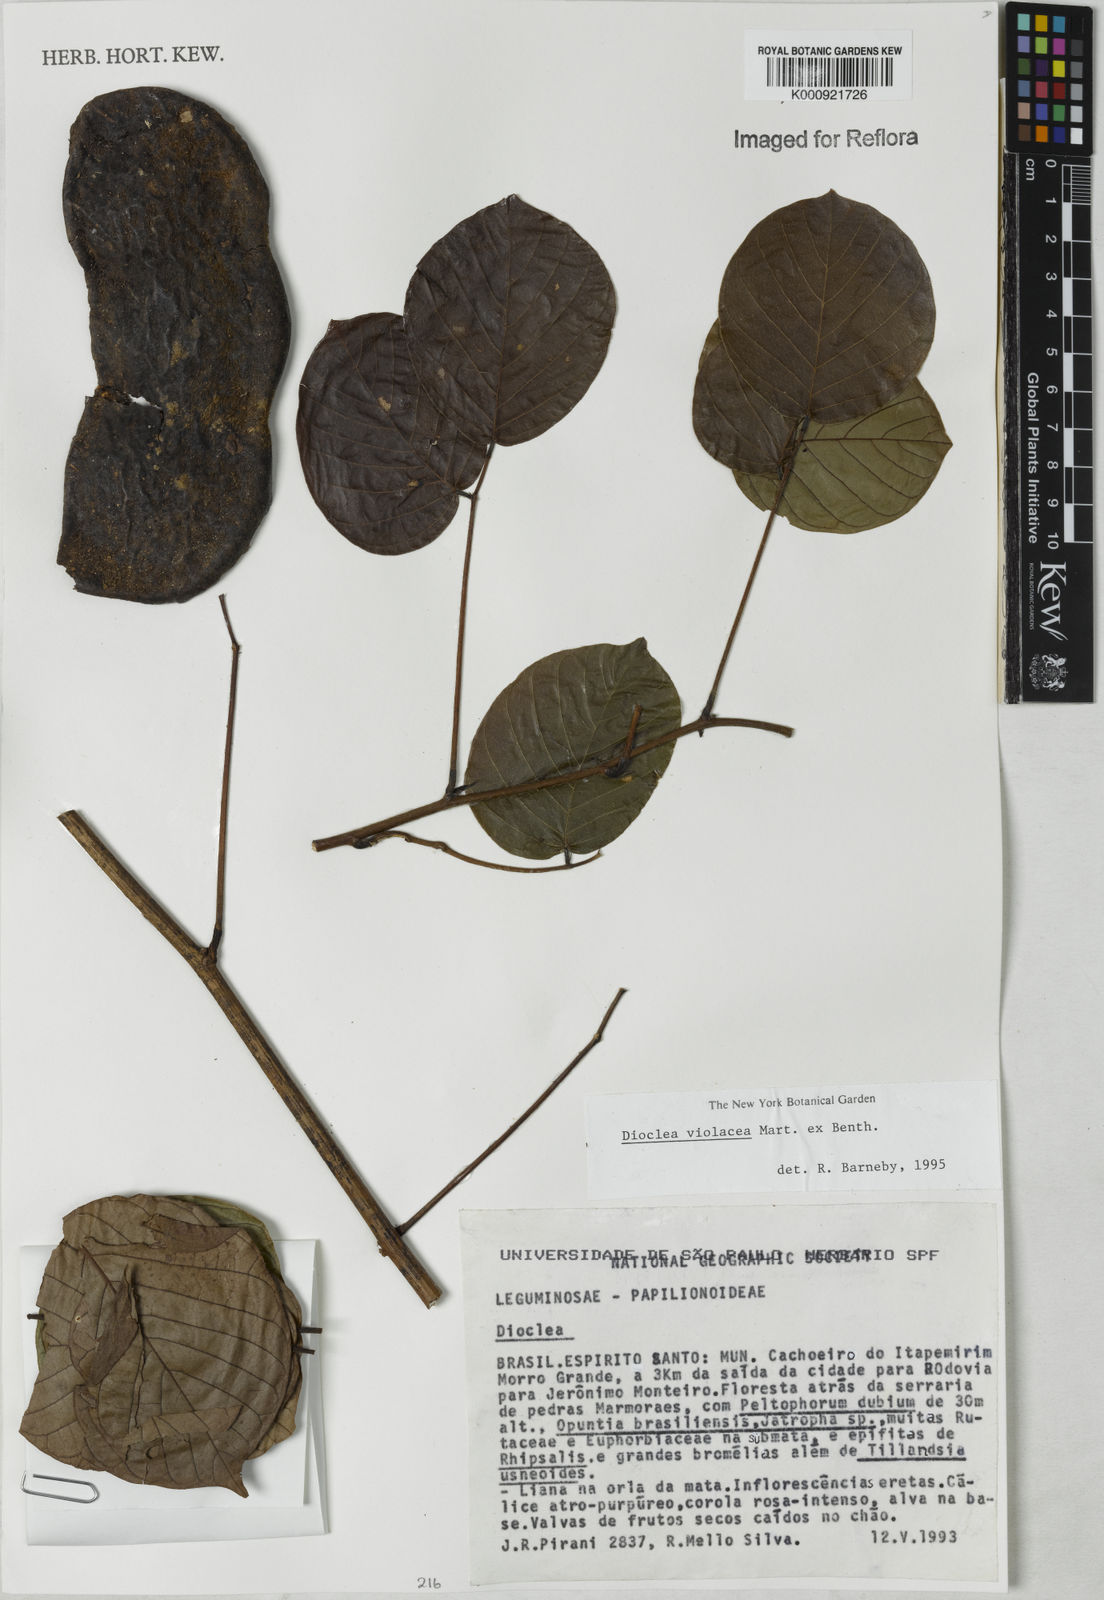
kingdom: Plantae
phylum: Tracheophyta
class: Magnoliopsida
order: Fabales
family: Fabaceae
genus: Macropsychanthus
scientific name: Macropsychanthus violaceus
